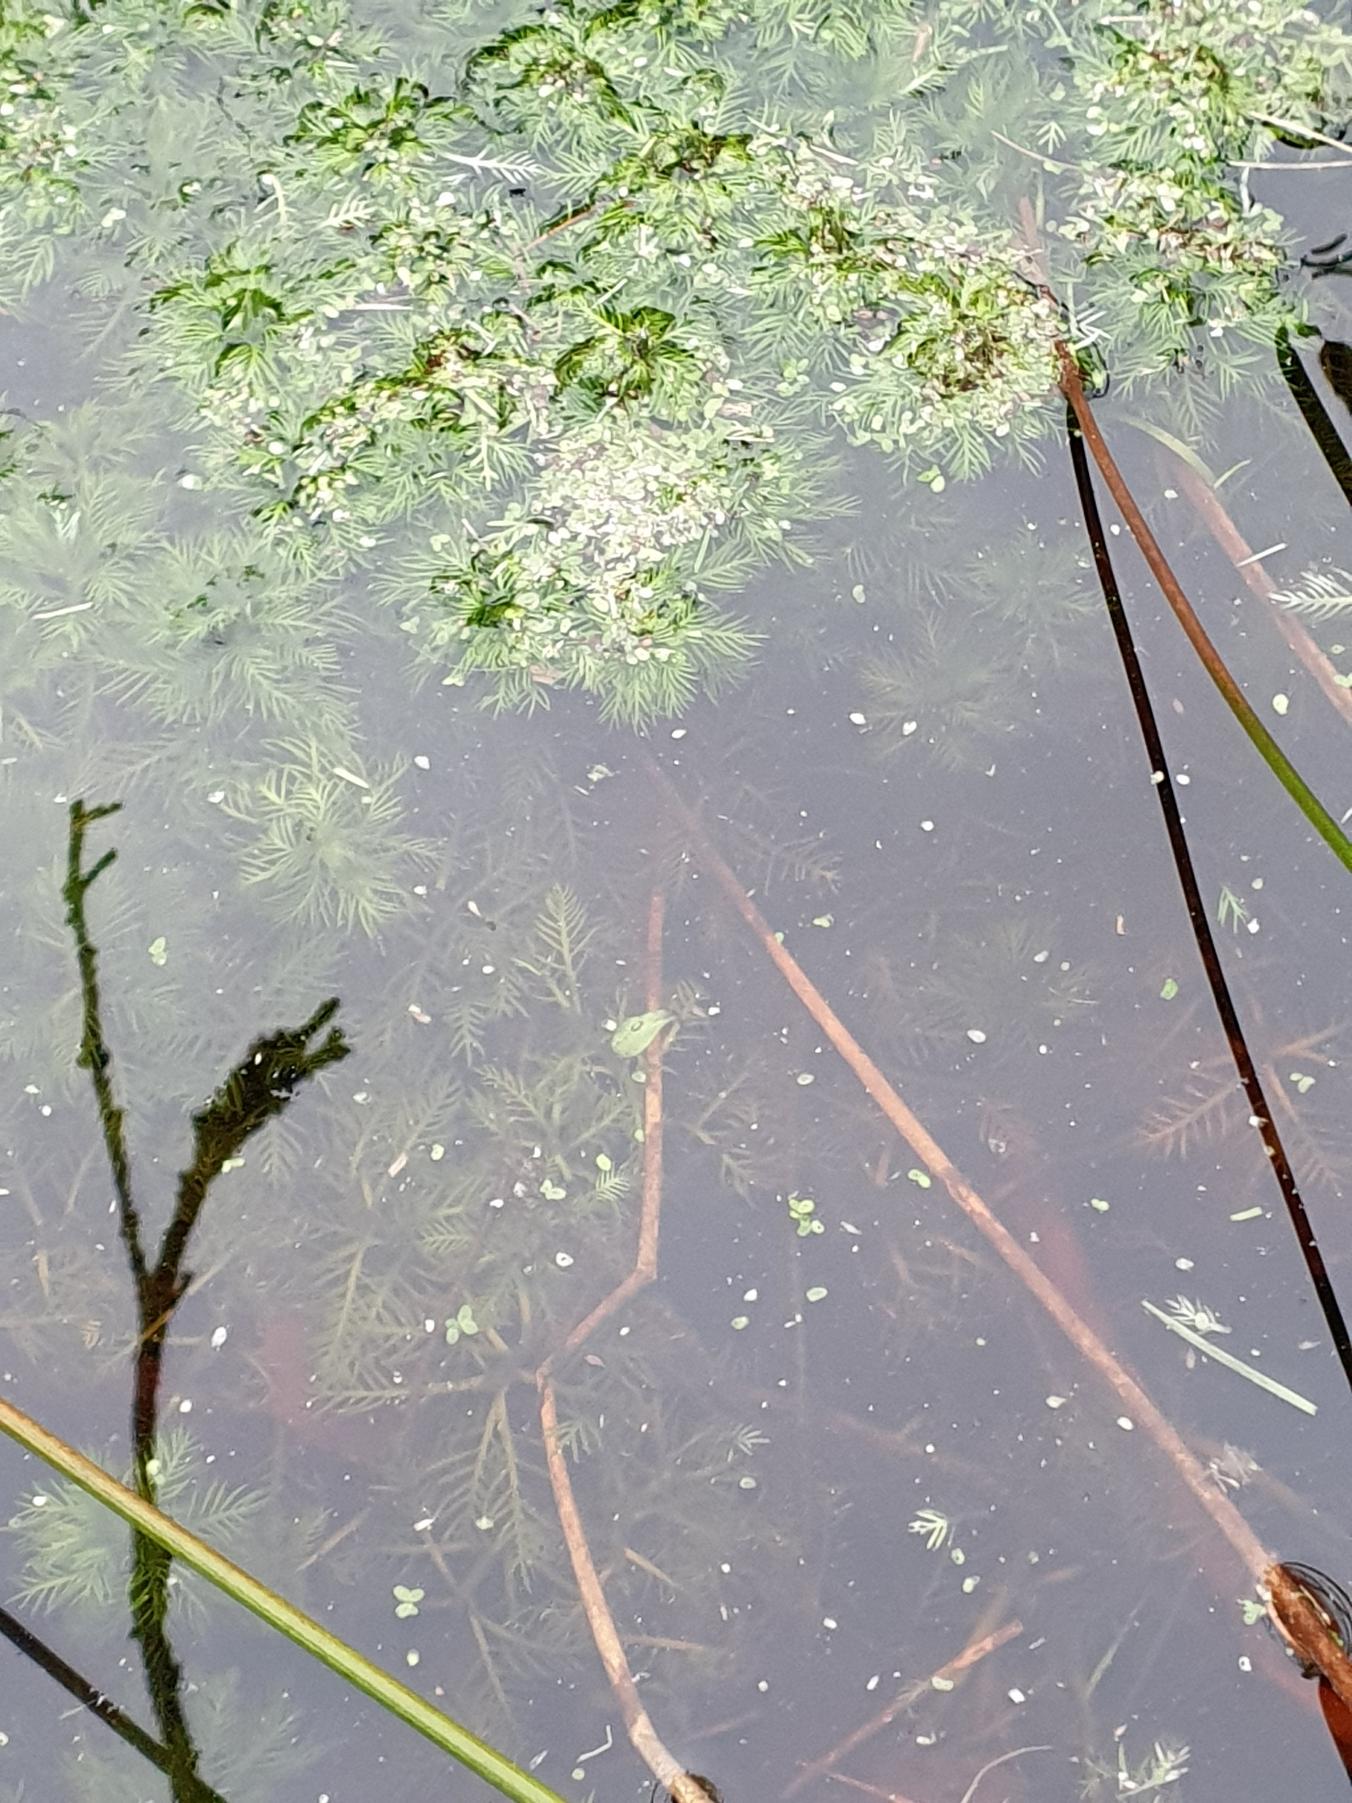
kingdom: Plantae
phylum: Tracheophyta
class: Magnoliopsida
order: Ericales
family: Primulaceae
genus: Hottonia
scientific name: Hottonia palustris
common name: Vandrøllike
